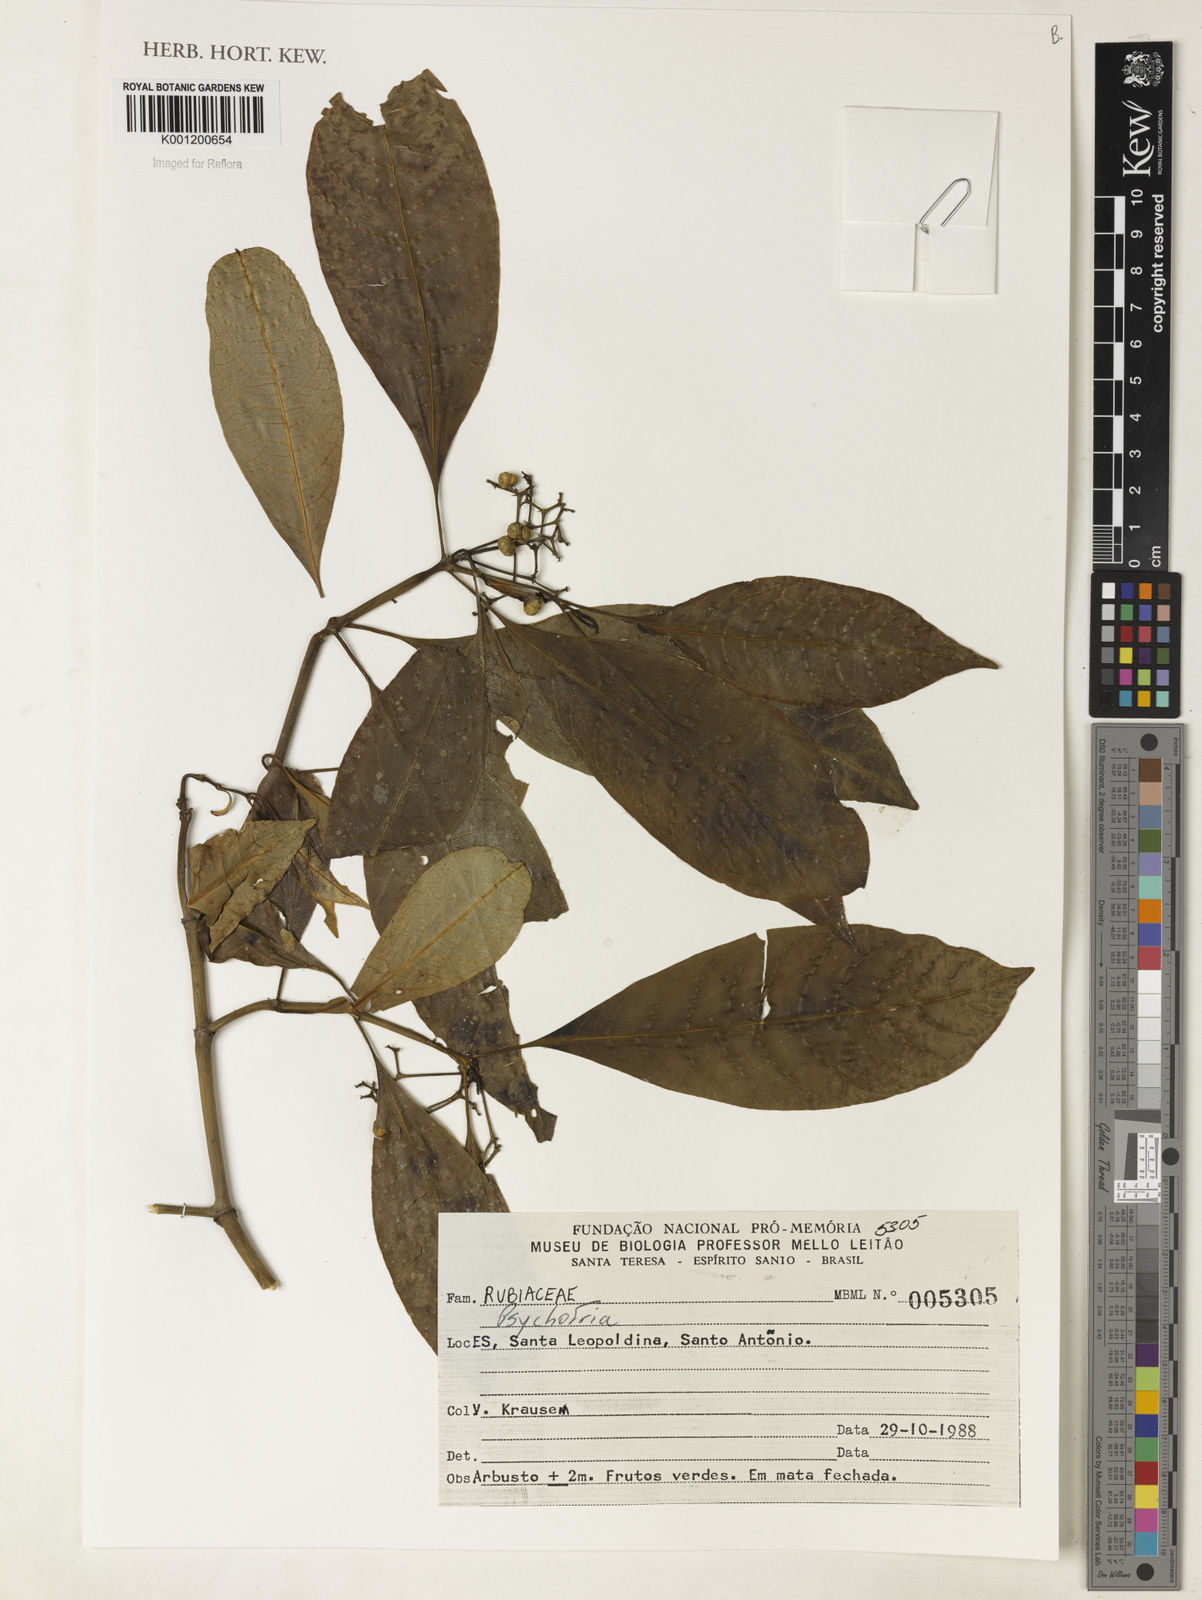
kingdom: Plantae
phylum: Tracheophyta
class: Magnoliopsida
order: Gentianales
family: Rubiaceae
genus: Psychotria
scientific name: Psychotria
